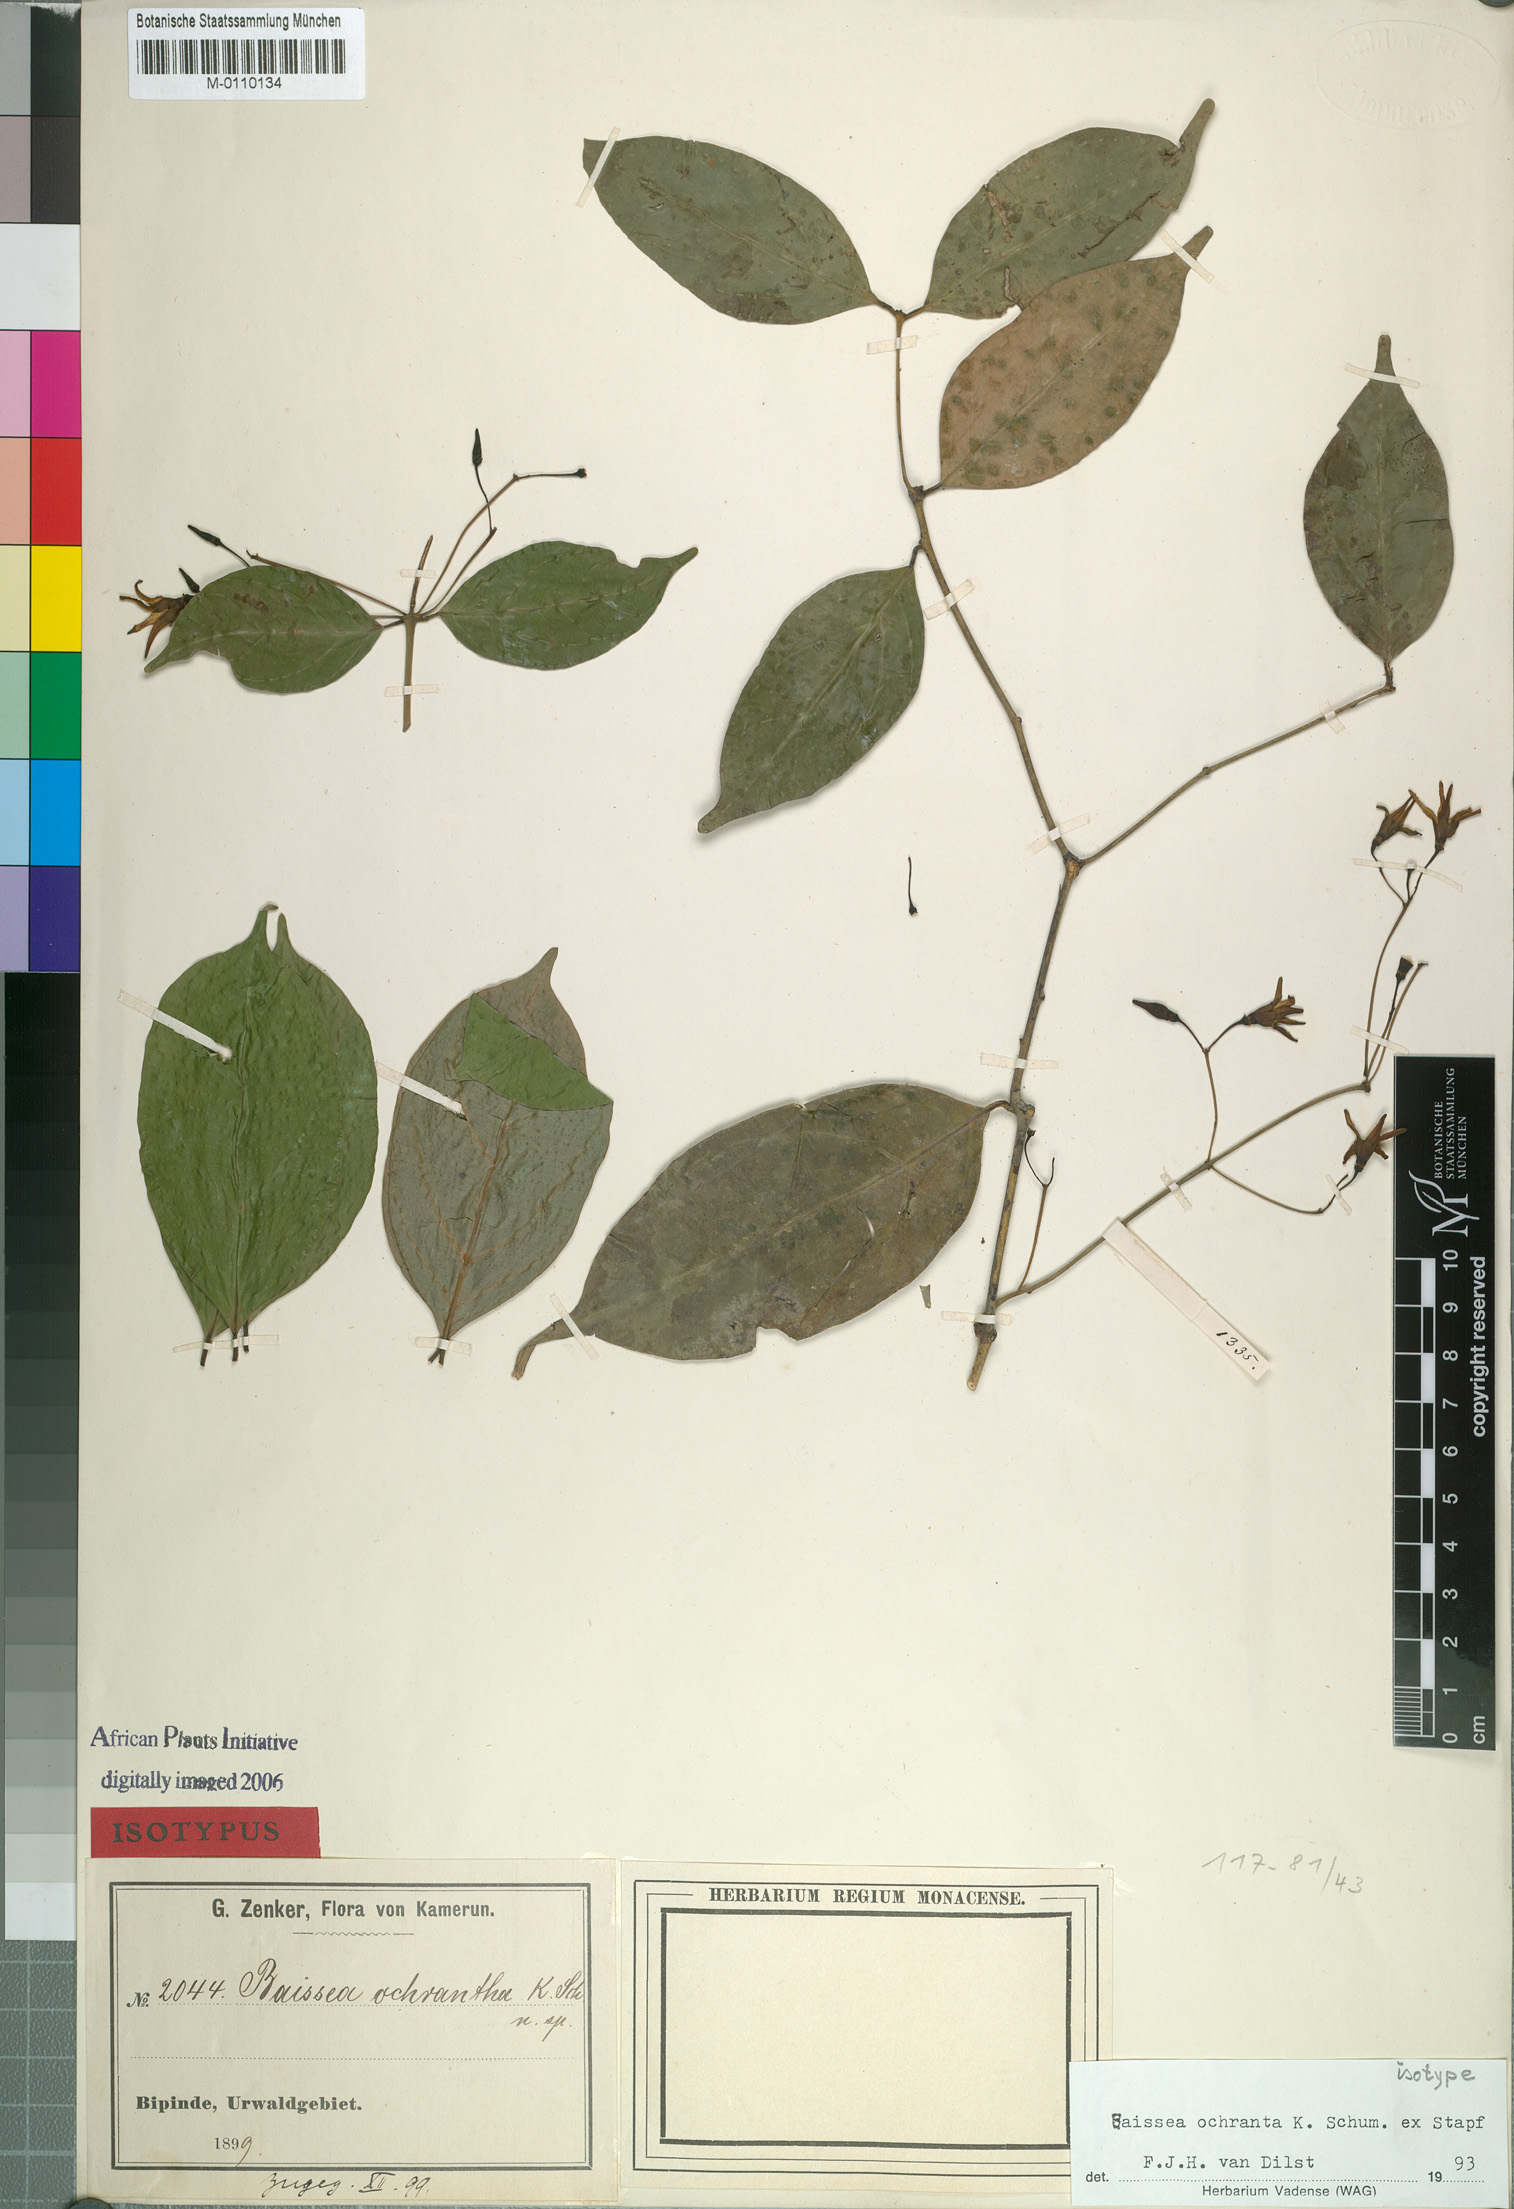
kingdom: Plantae
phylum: Tracheophyta
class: Magnoliopsida
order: Gentianales
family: Apocynaceae
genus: Baissea
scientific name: Baissea ochrantha
